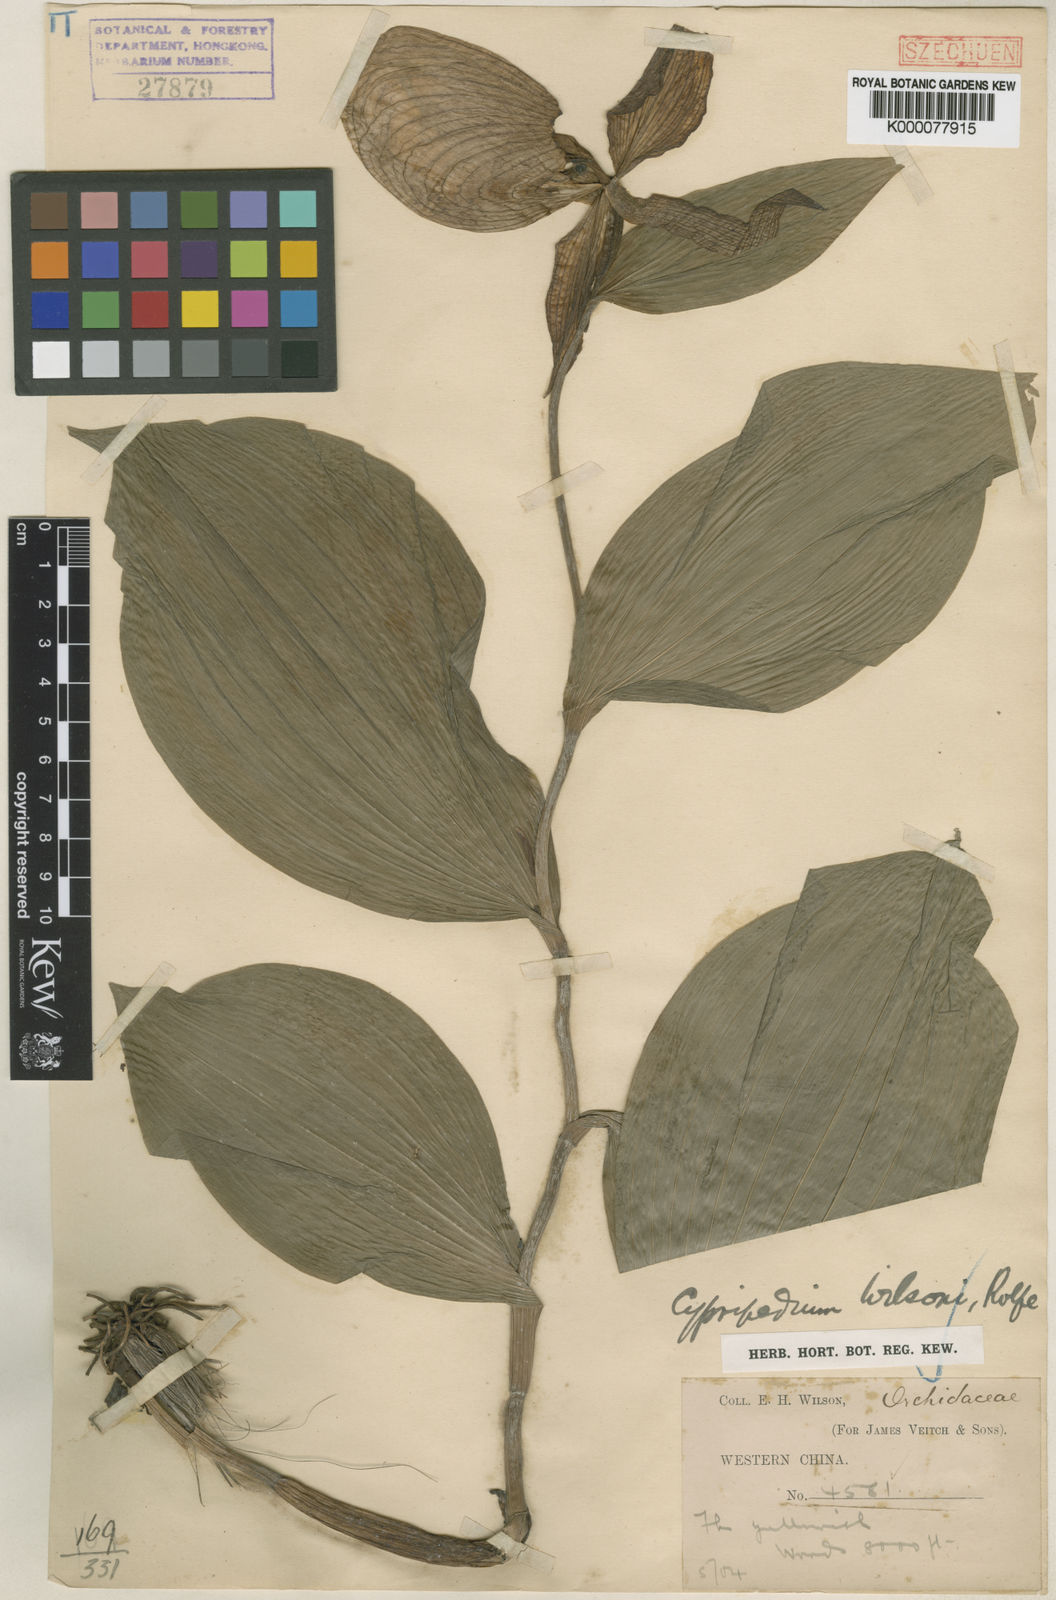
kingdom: Plantae
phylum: Tracheophyta
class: Liliopsida
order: Asparagales
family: Orchidaceae
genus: Cypripedium
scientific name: Cypripedium fasciolatum
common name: Striped lady slipper
